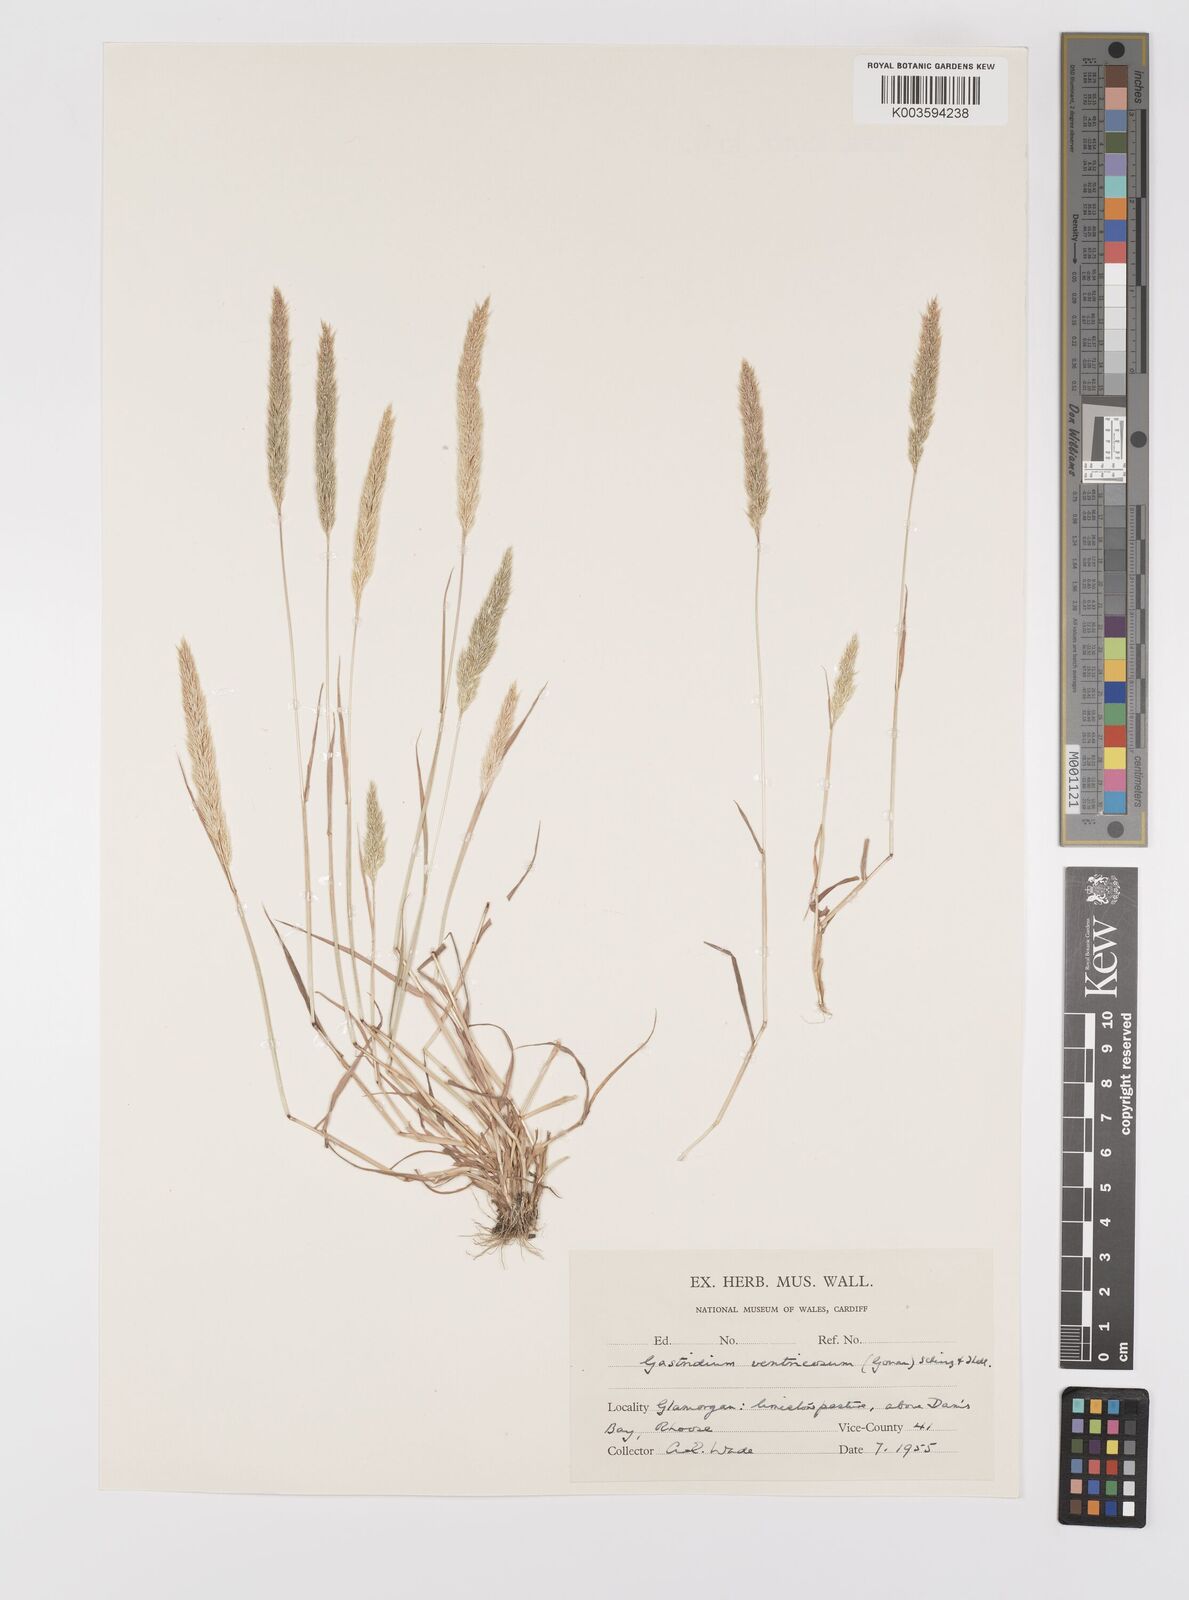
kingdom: Plantae
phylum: Tracheophyta
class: Liliopsida
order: Poales
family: Poaceae
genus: Gastridium
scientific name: Gastridium ventricosum
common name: Nit-grass
